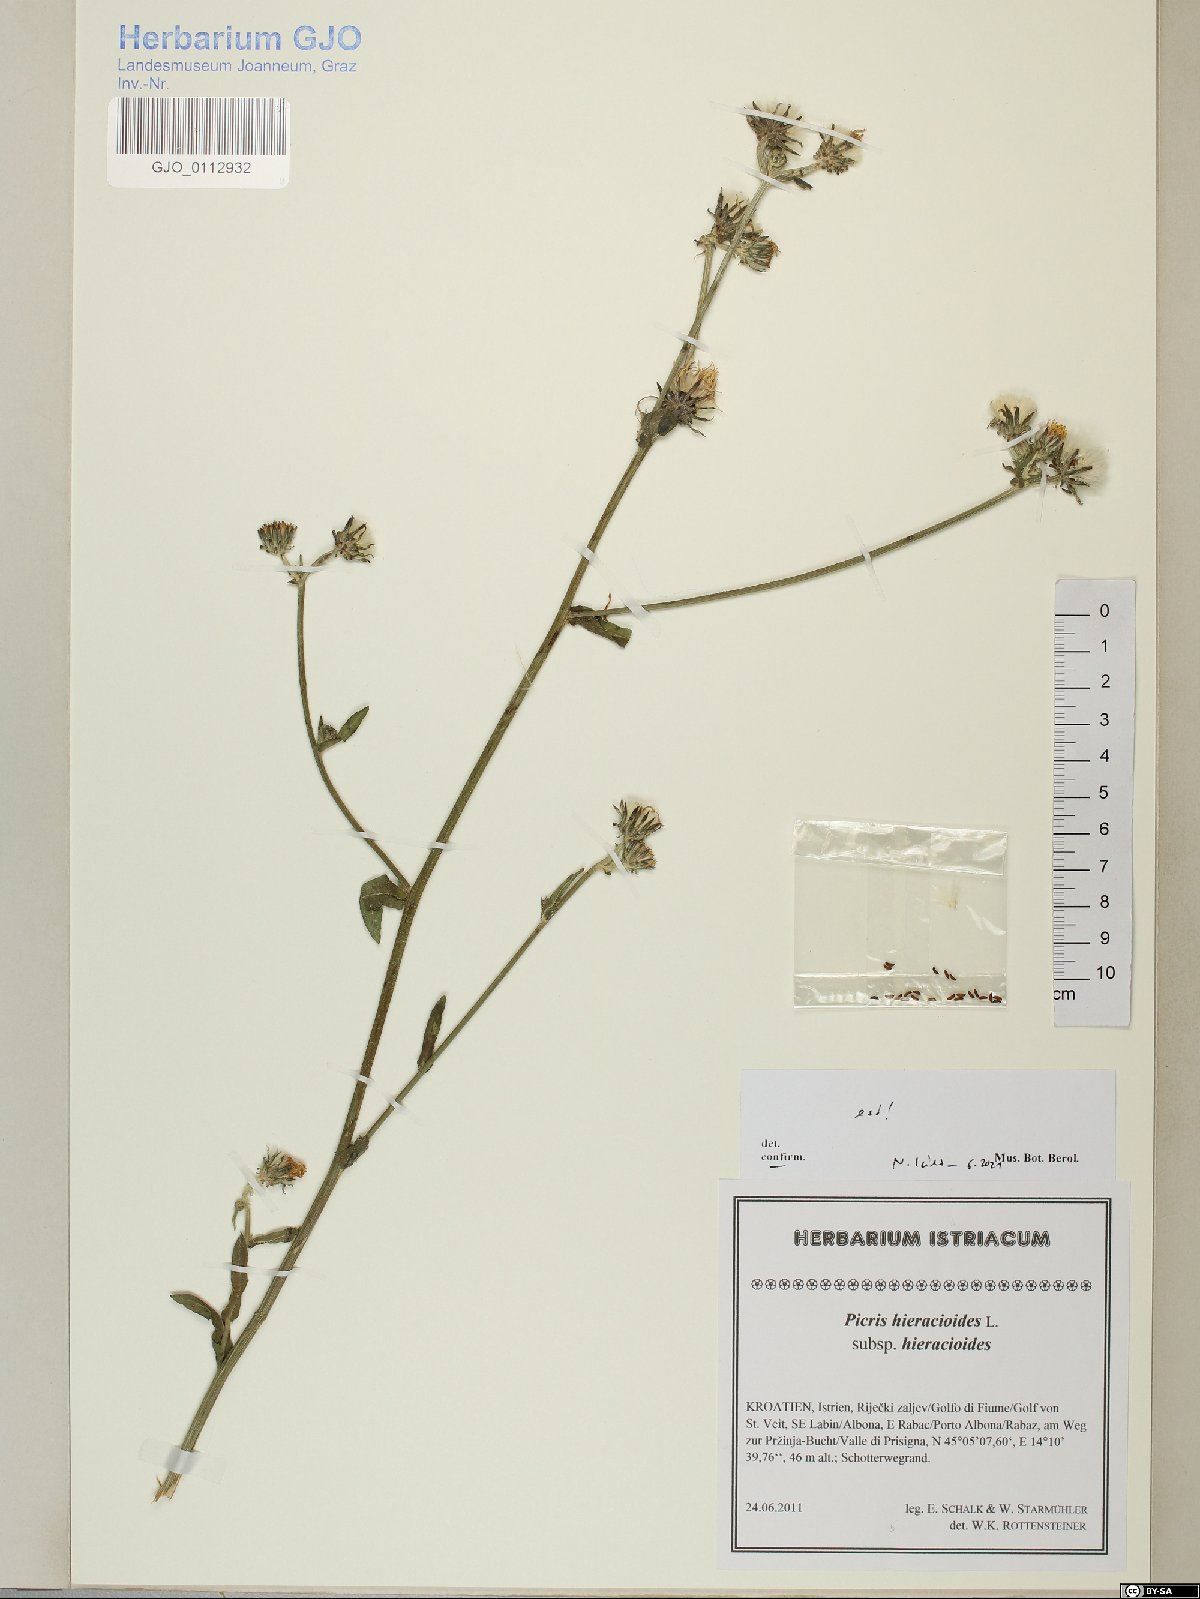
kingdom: Plantae
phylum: Tracheophyta
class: Magnoliopsida
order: Asterales
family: Asteraceae
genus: Picris
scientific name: Picris hieracioides
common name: Hawkweed oxtongue
